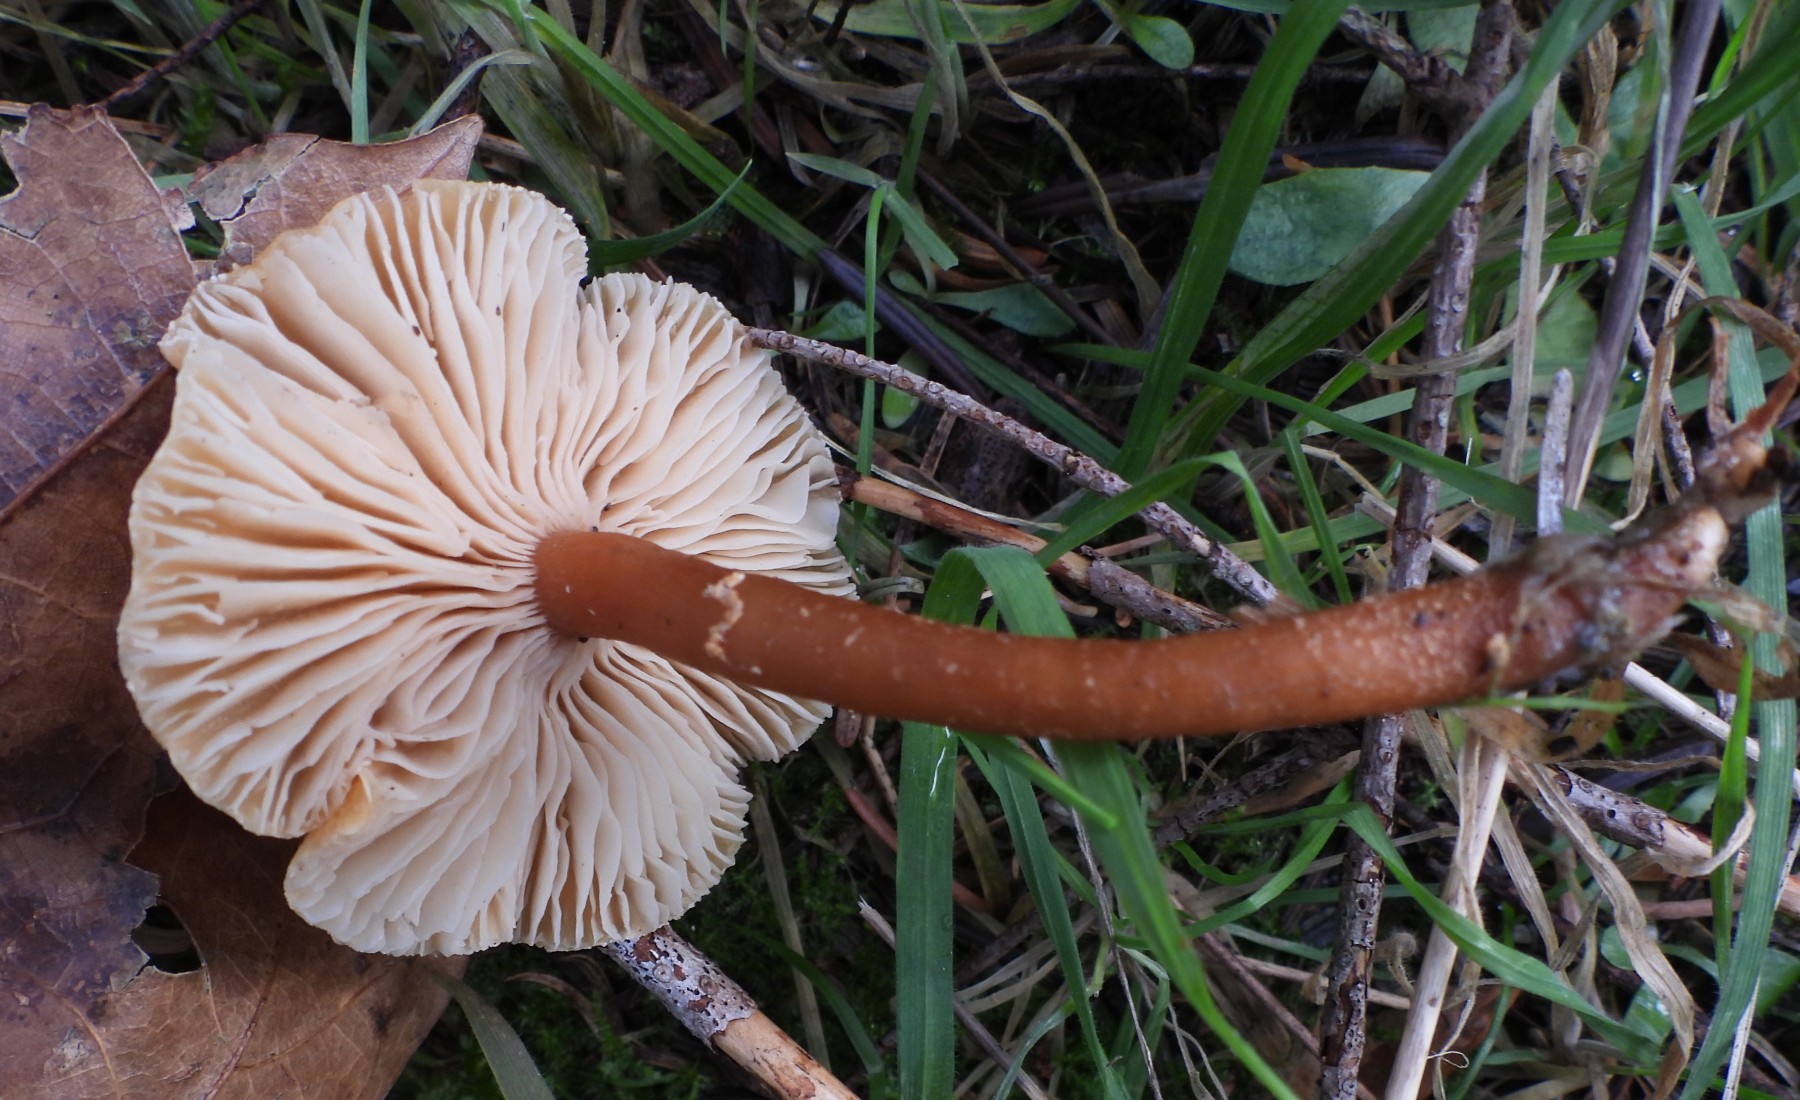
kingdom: Fungi
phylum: Basidiomycota
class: Agaricomycetes
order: Agaricales
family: Tricholomataceae
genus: Cystoderma
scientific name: Cystoderma amianthinum
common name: okkergul grynhat
